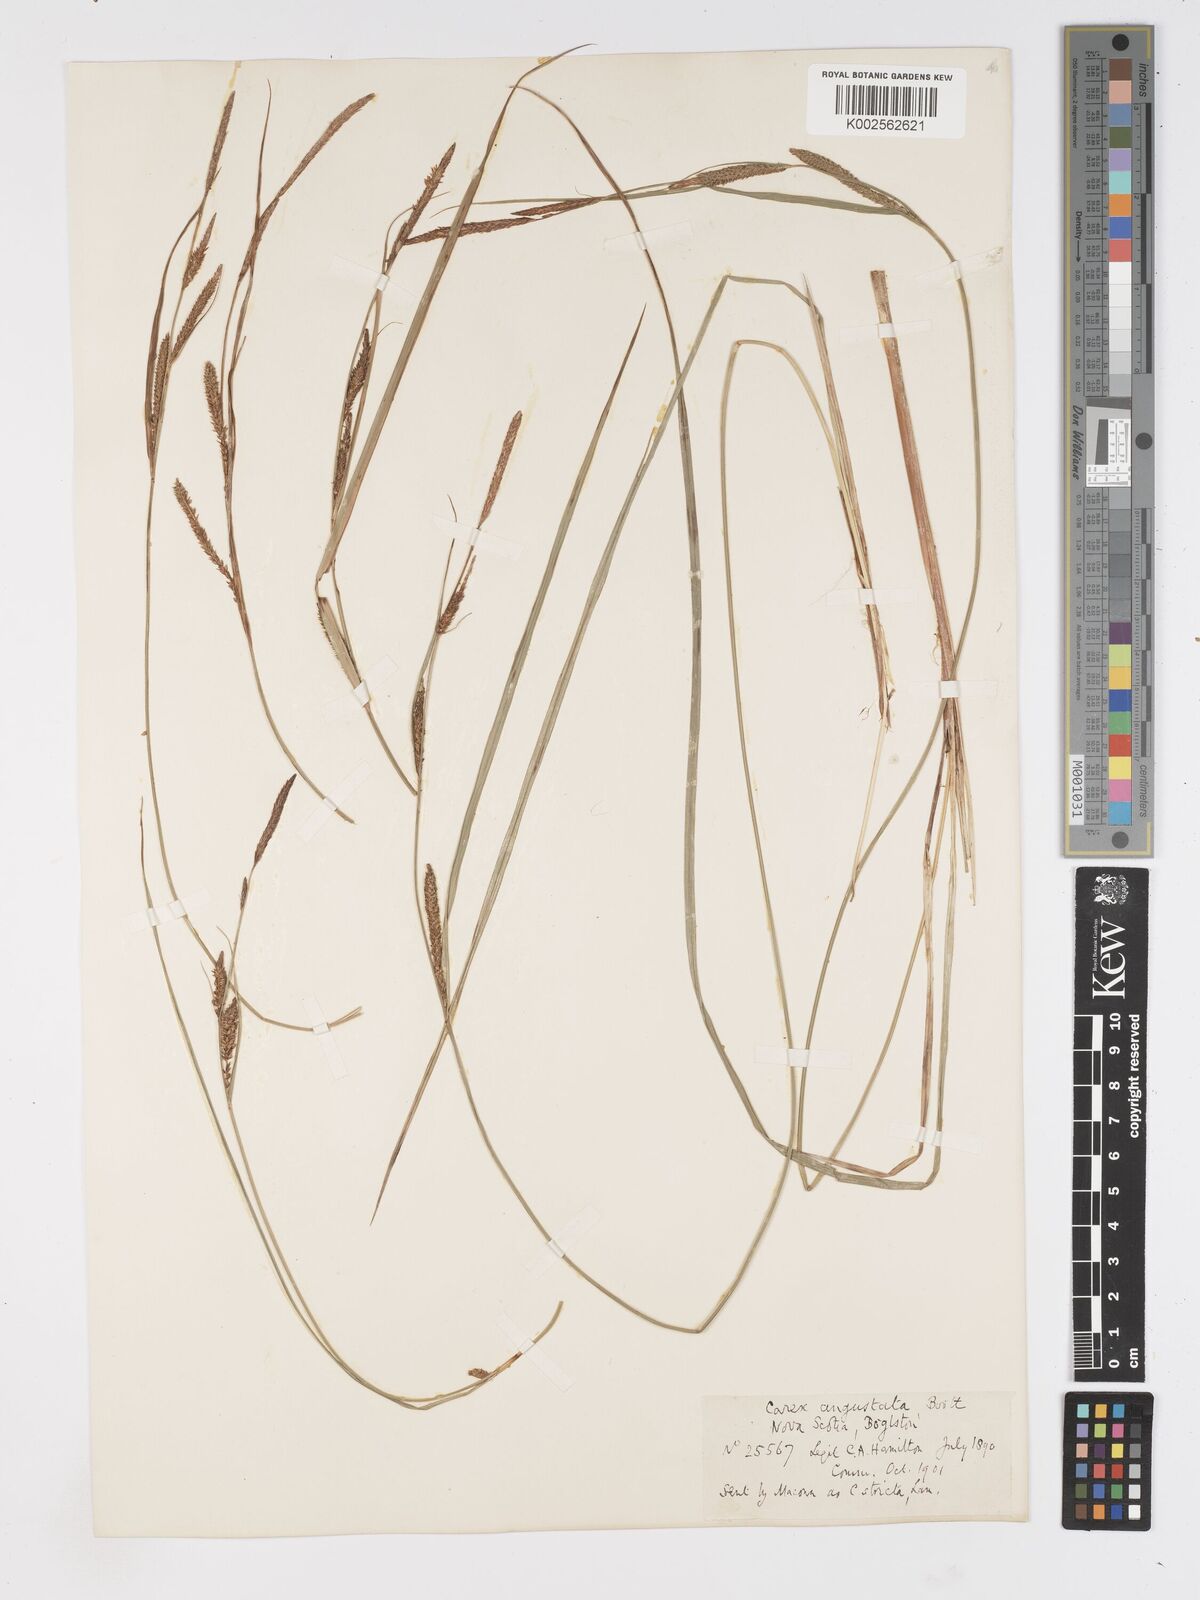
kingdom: Plantae
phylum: Tracheophyta
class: Liliopsida
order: Poales
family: Cyperaceae
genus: Carex
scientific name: Carex stricta
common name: Hummock sedge
